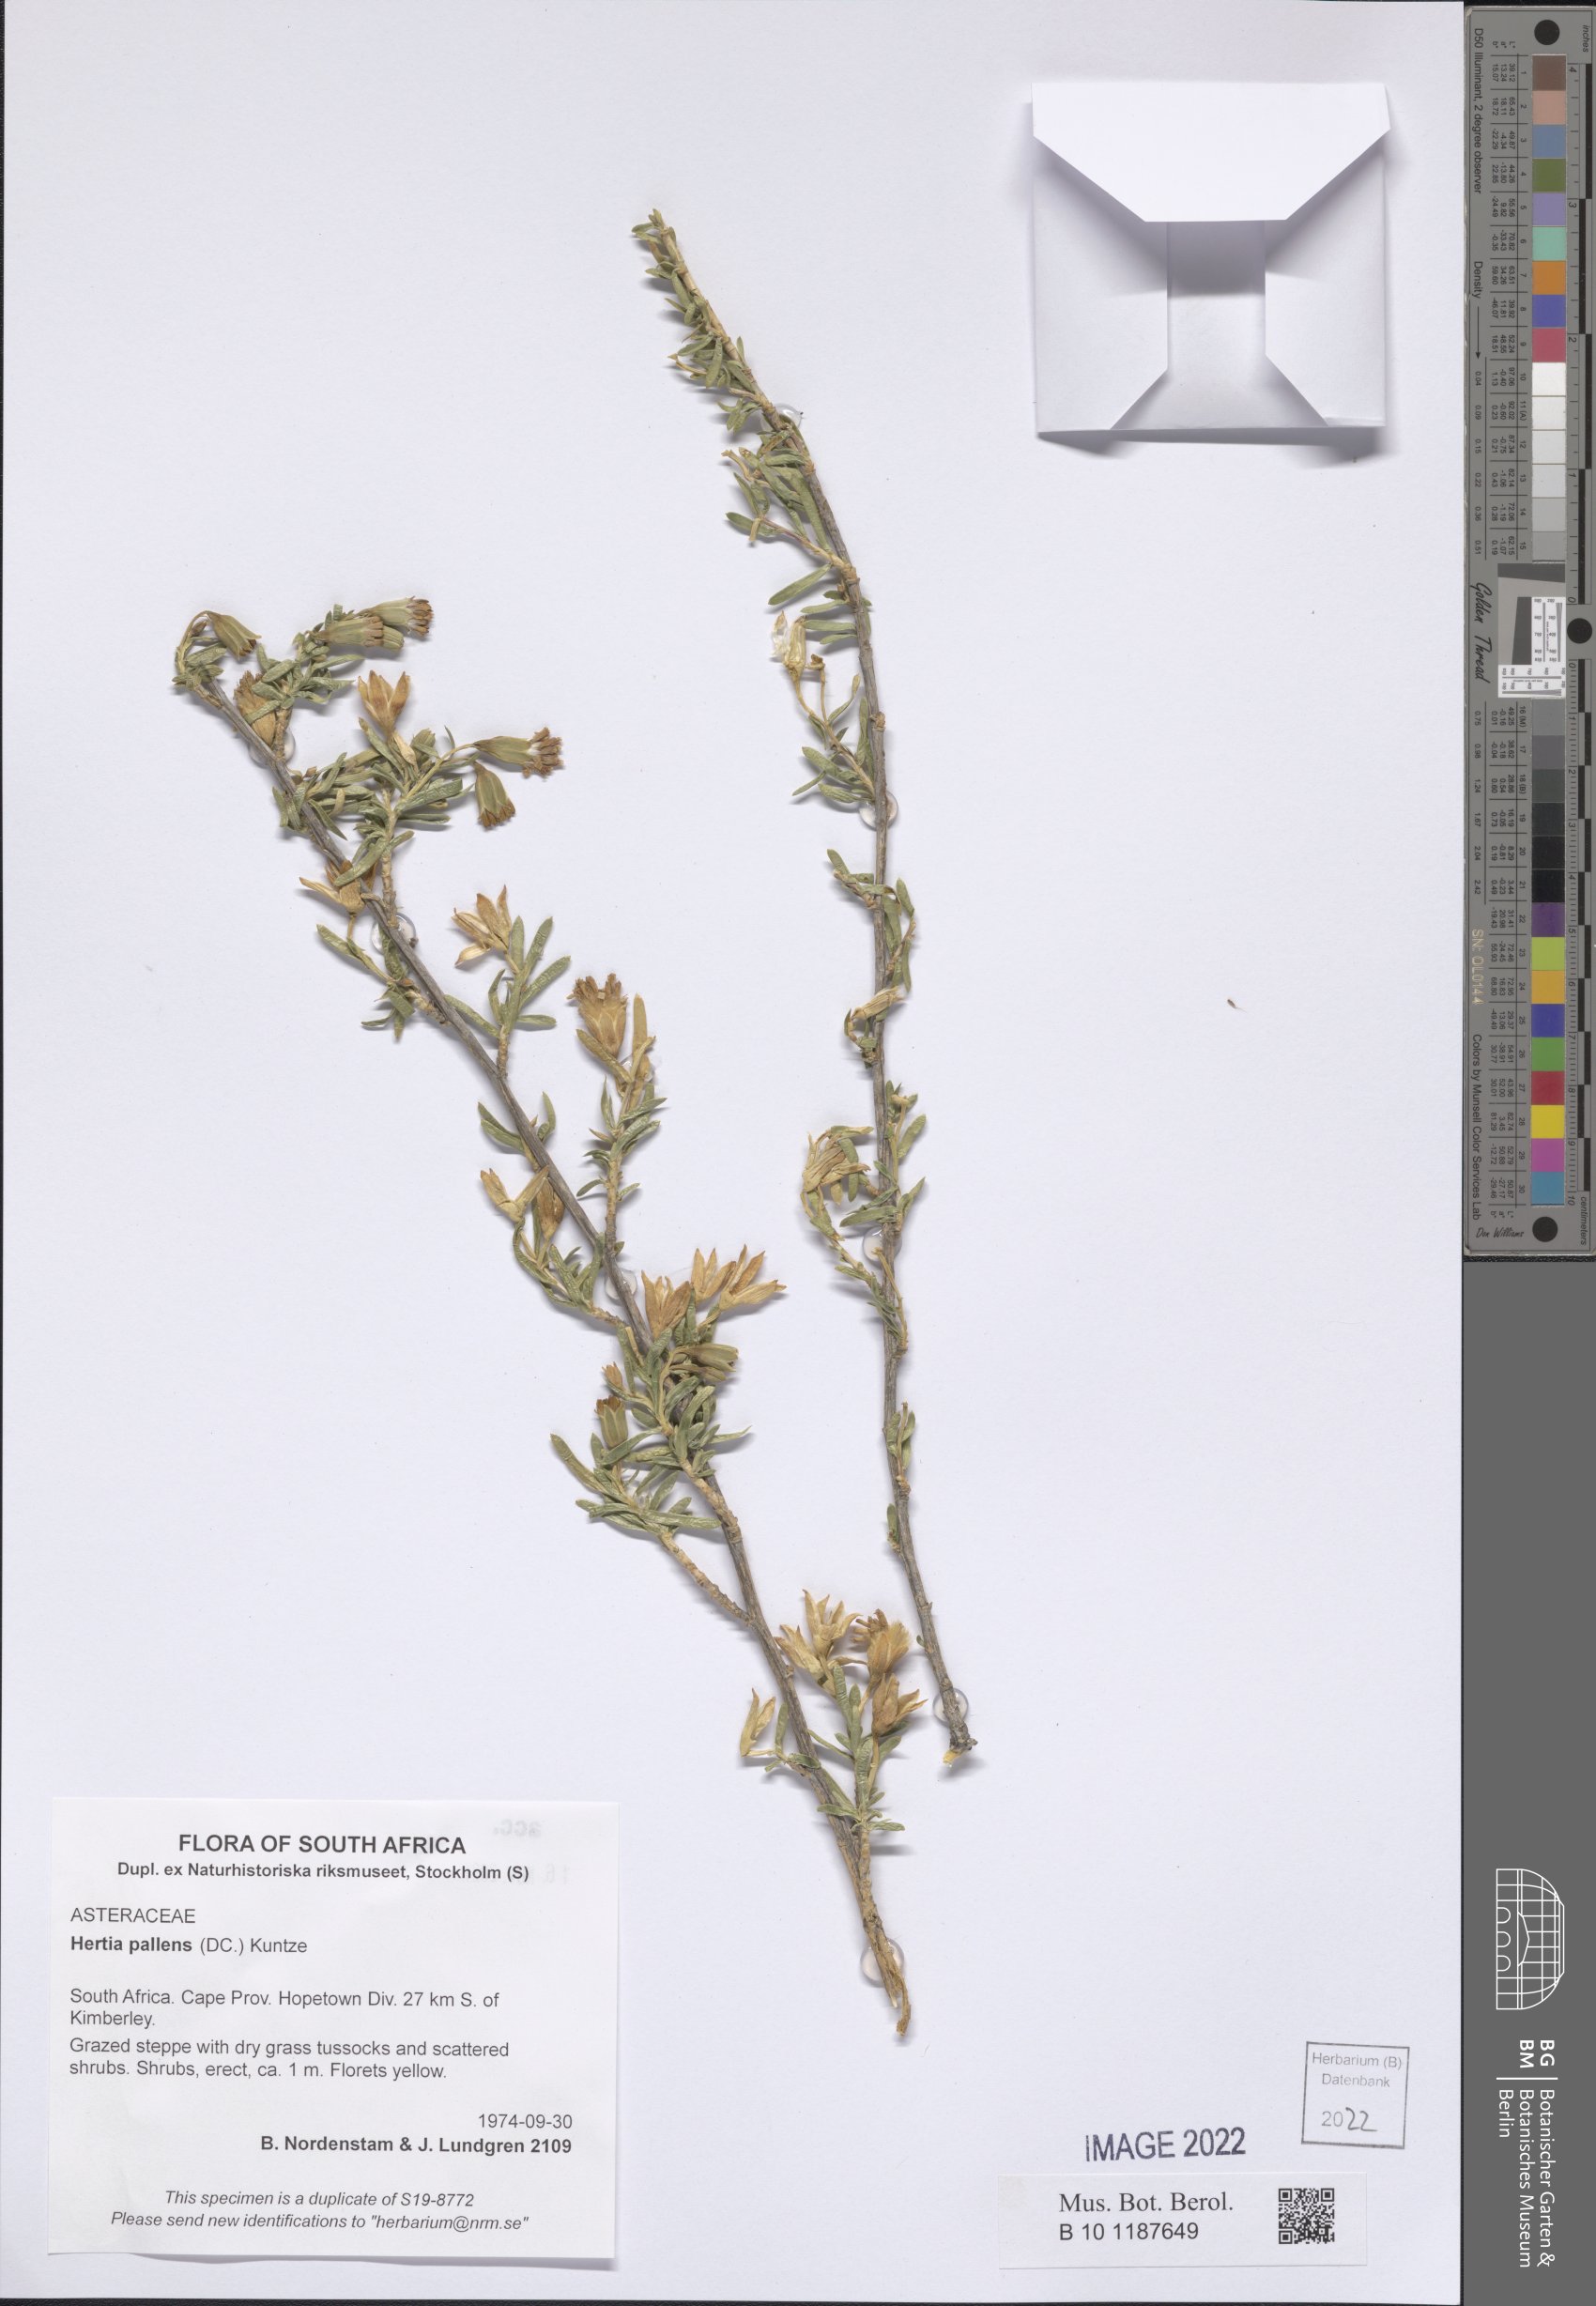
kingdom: Plantae
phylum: Tracheophyta
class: Magnoliopsida
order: Asterales
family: Asteraceae
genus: Hertia
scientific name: Hertia pallens
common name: Springbokbush
